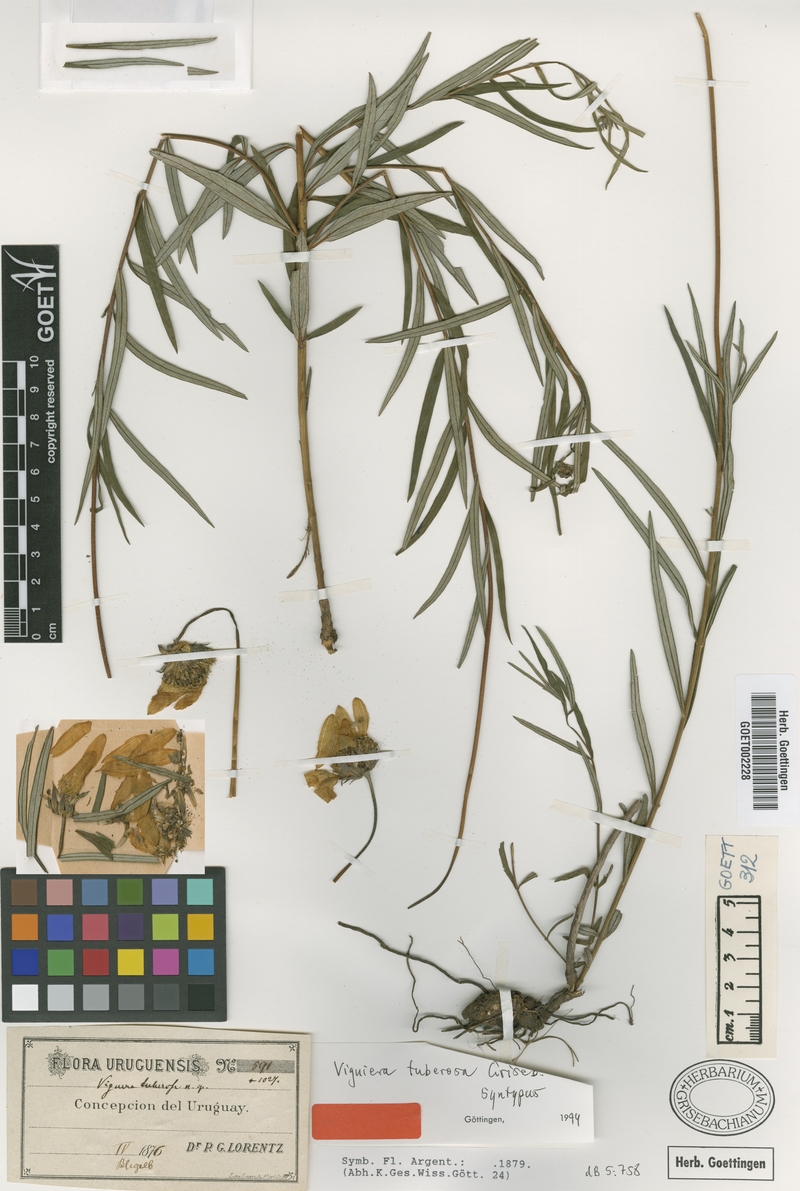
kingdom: Plantae
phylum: Tracheophyta
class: Magnoliopsida
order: Asterales
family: Asteraceae
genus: Aldama
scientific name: Aldama tuberosa
